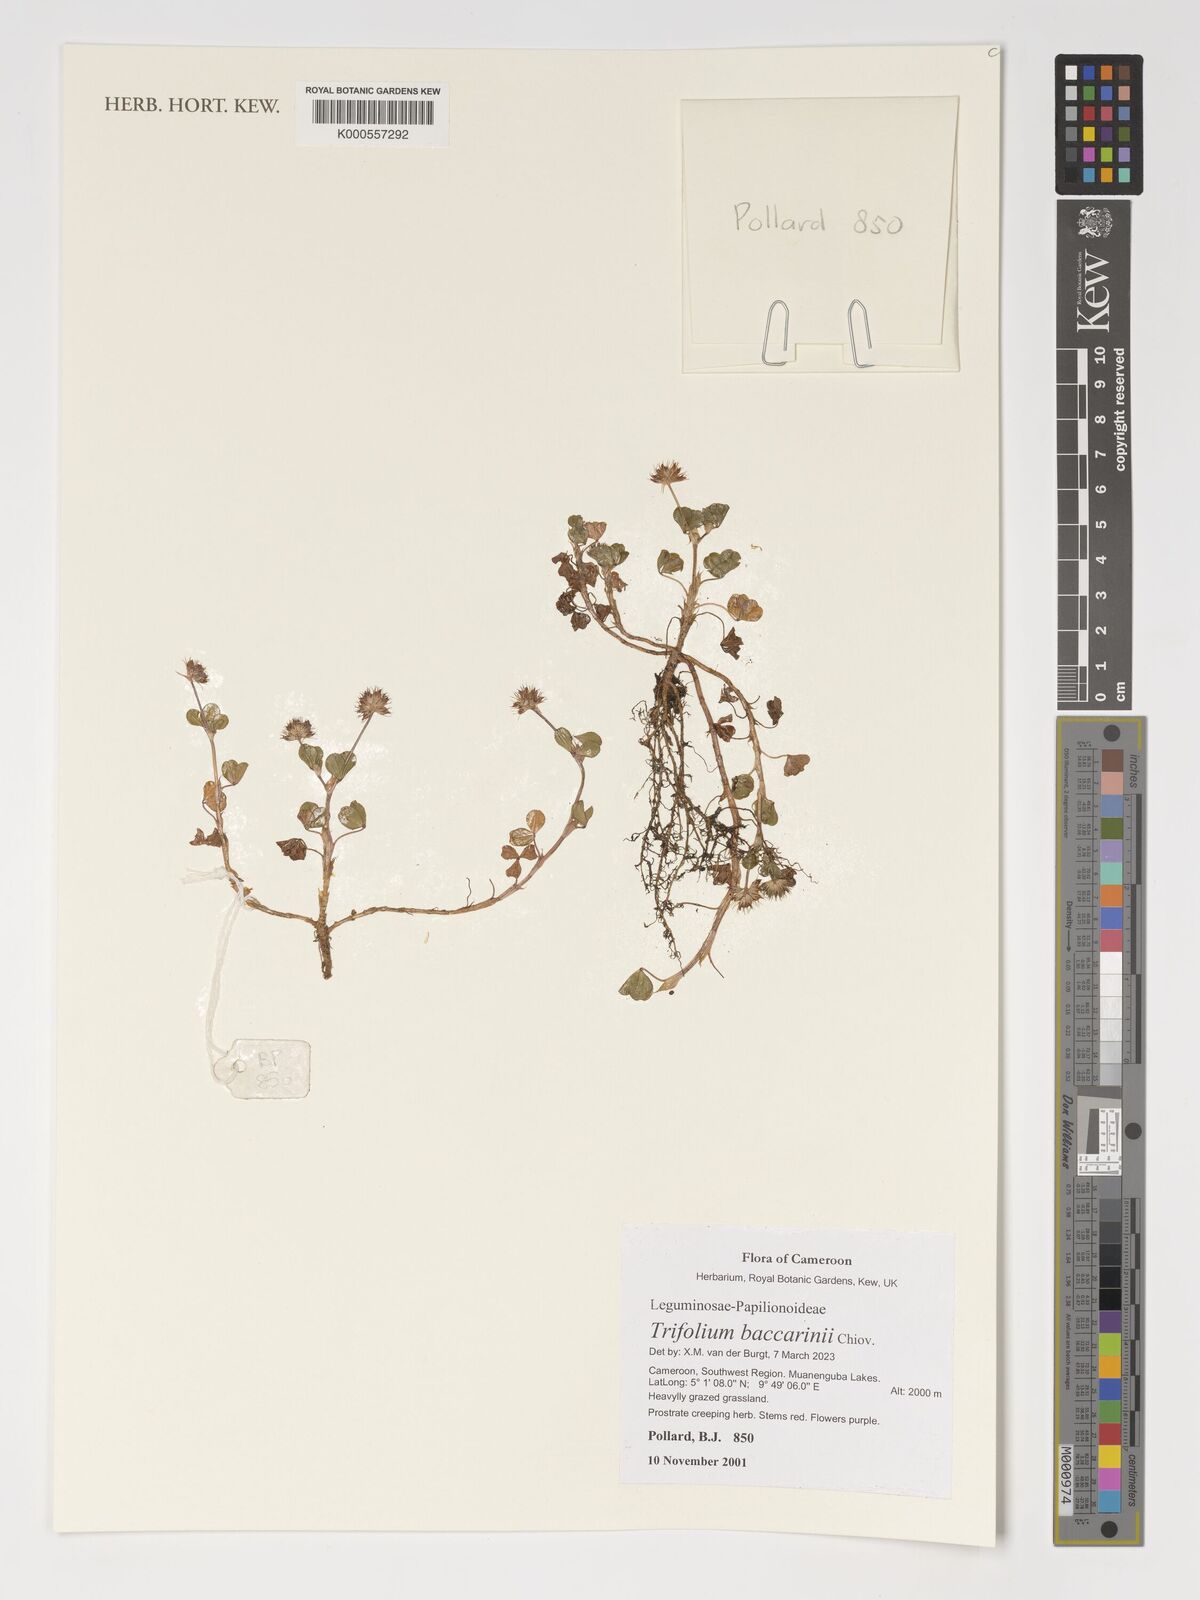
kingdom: Plantae
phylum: Tracheophyta
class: Magnoliopsida
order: Fabales
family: Fabaceae
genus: Trifolium
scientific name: Trifolium baccarinii
